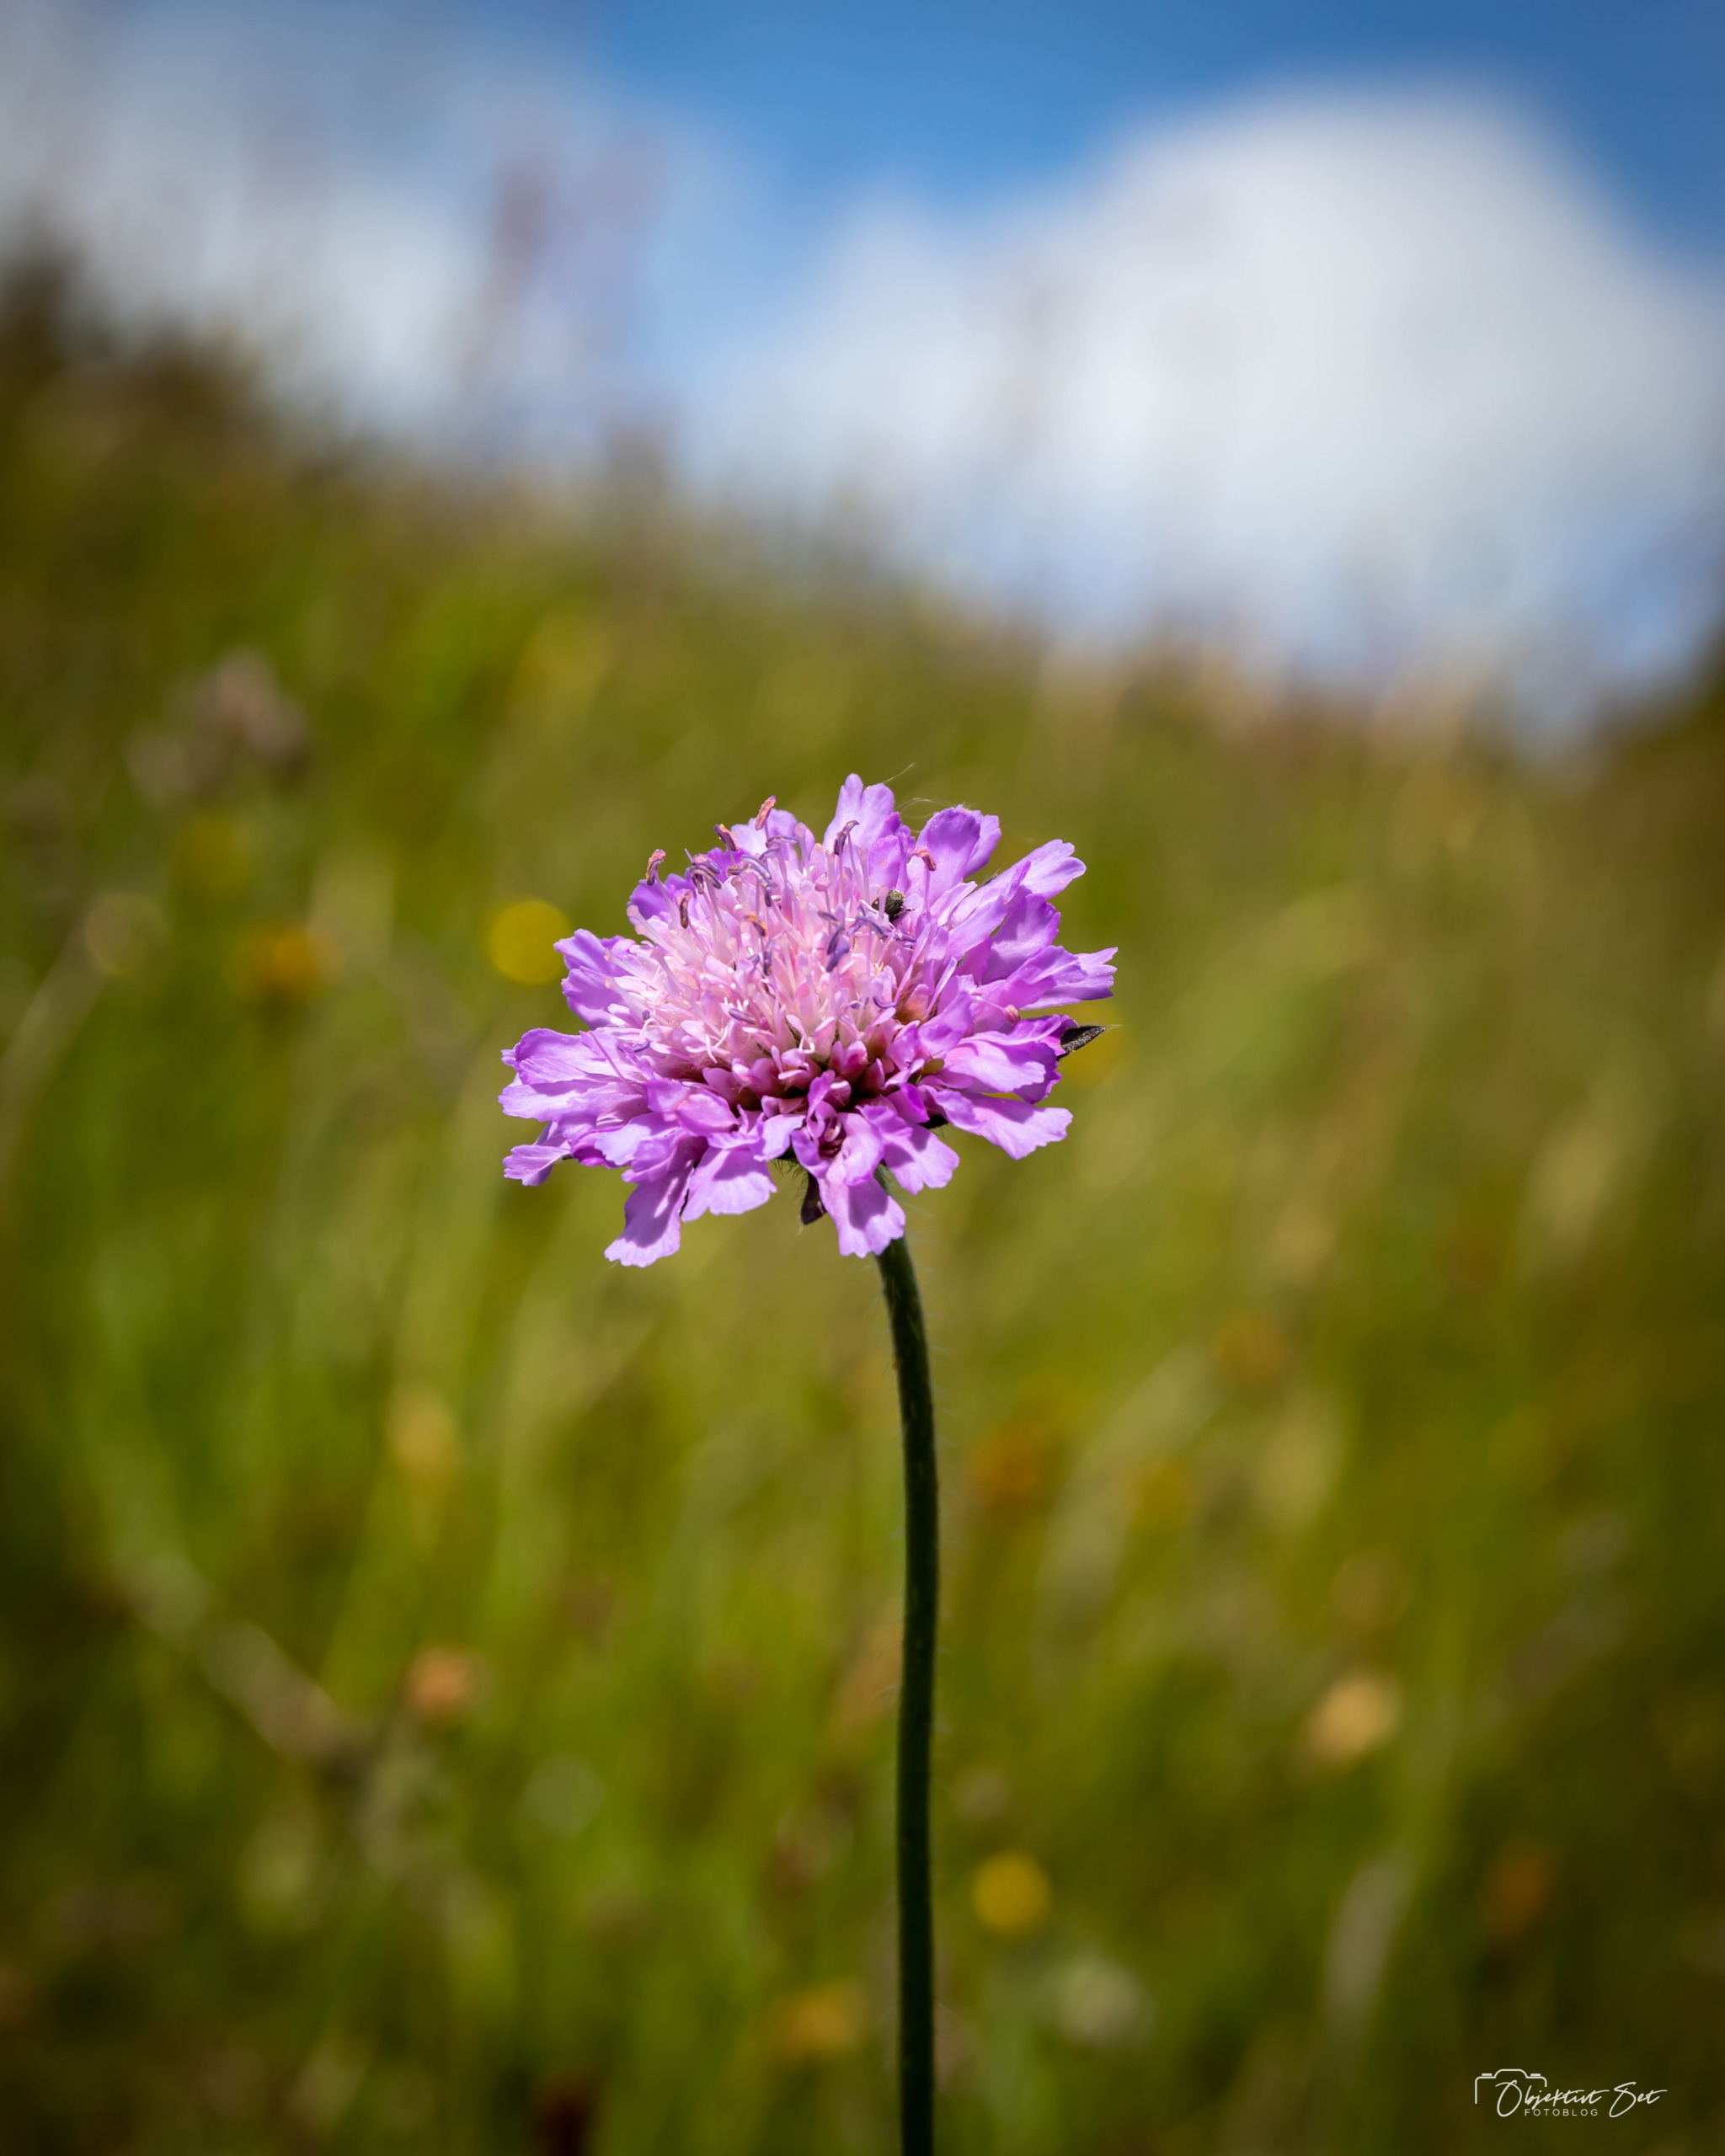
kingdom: Plantae
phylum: Tracheophyta
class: Magnoliopsida
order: Dipsacales
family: Caprifoliaceae
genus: Knautia
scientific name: Knautia arvensis
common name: Blåhat
